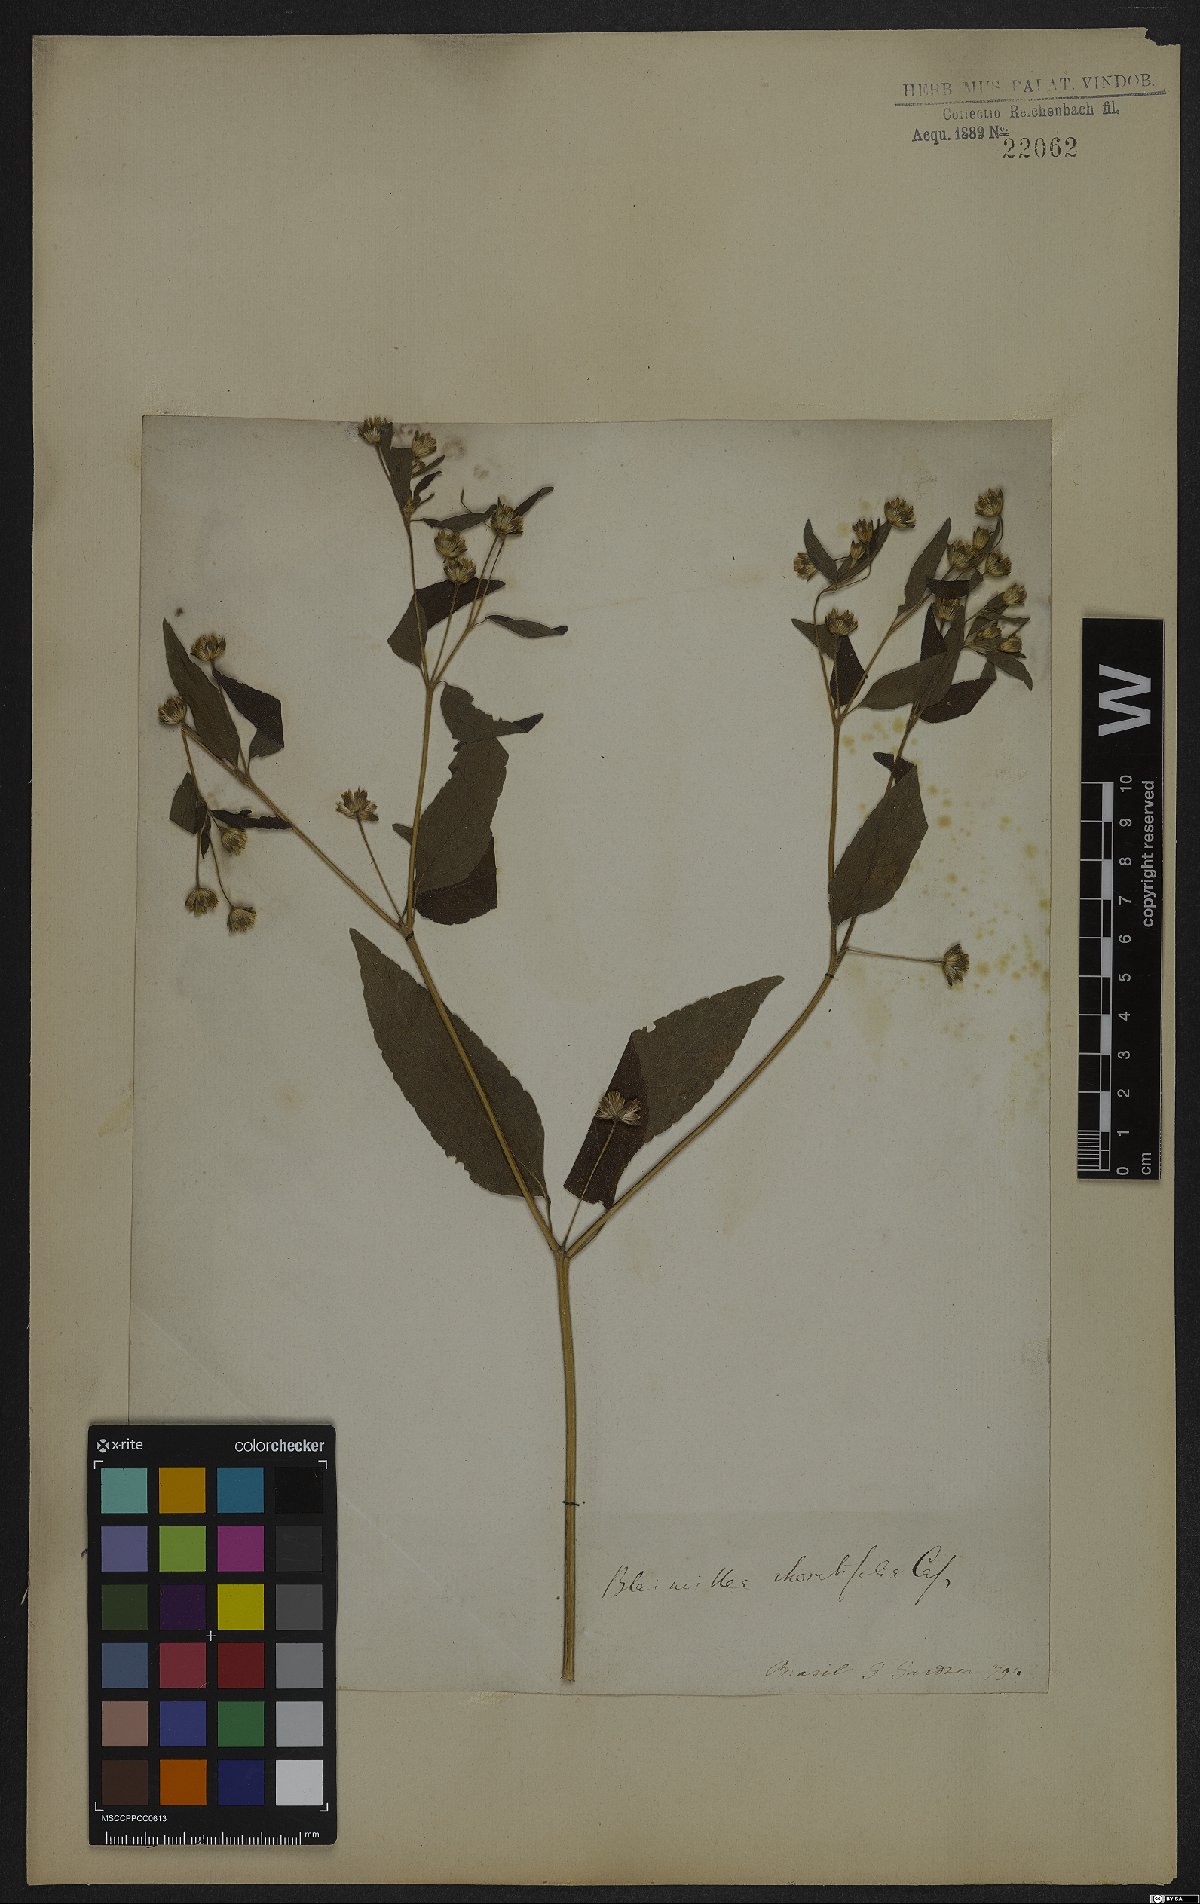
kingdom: Plantae
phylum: Tracheophyta
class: Magnoliopsida
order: Asterales
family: Asteraceae
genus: Blainvillea
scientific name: Blainvillea dichotoma
